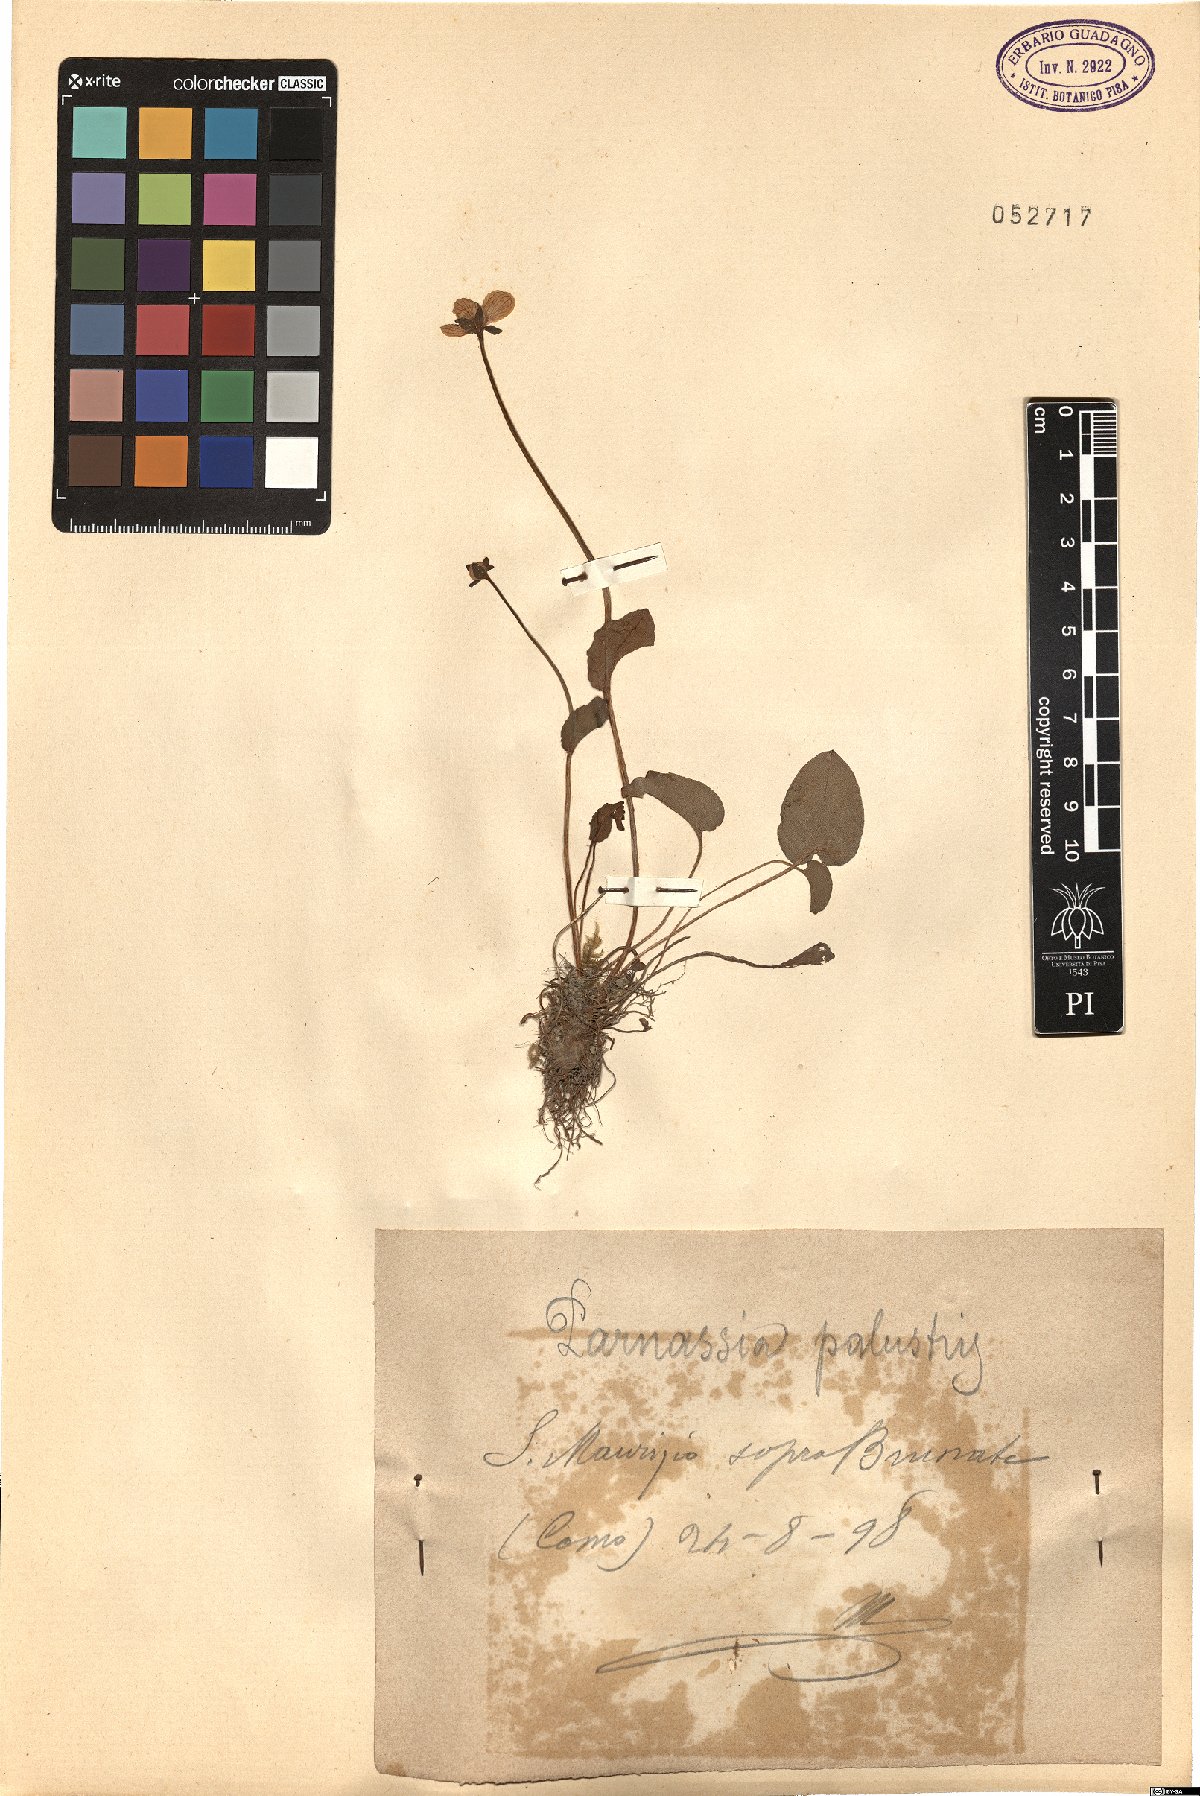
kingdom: Plantae
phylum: Tracheophyta
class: Magnoliopsida
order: Celastrales
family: Parnassiaceae
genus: Parnassia
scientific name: Parnassia palustris
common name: Grass-of-parnassus
